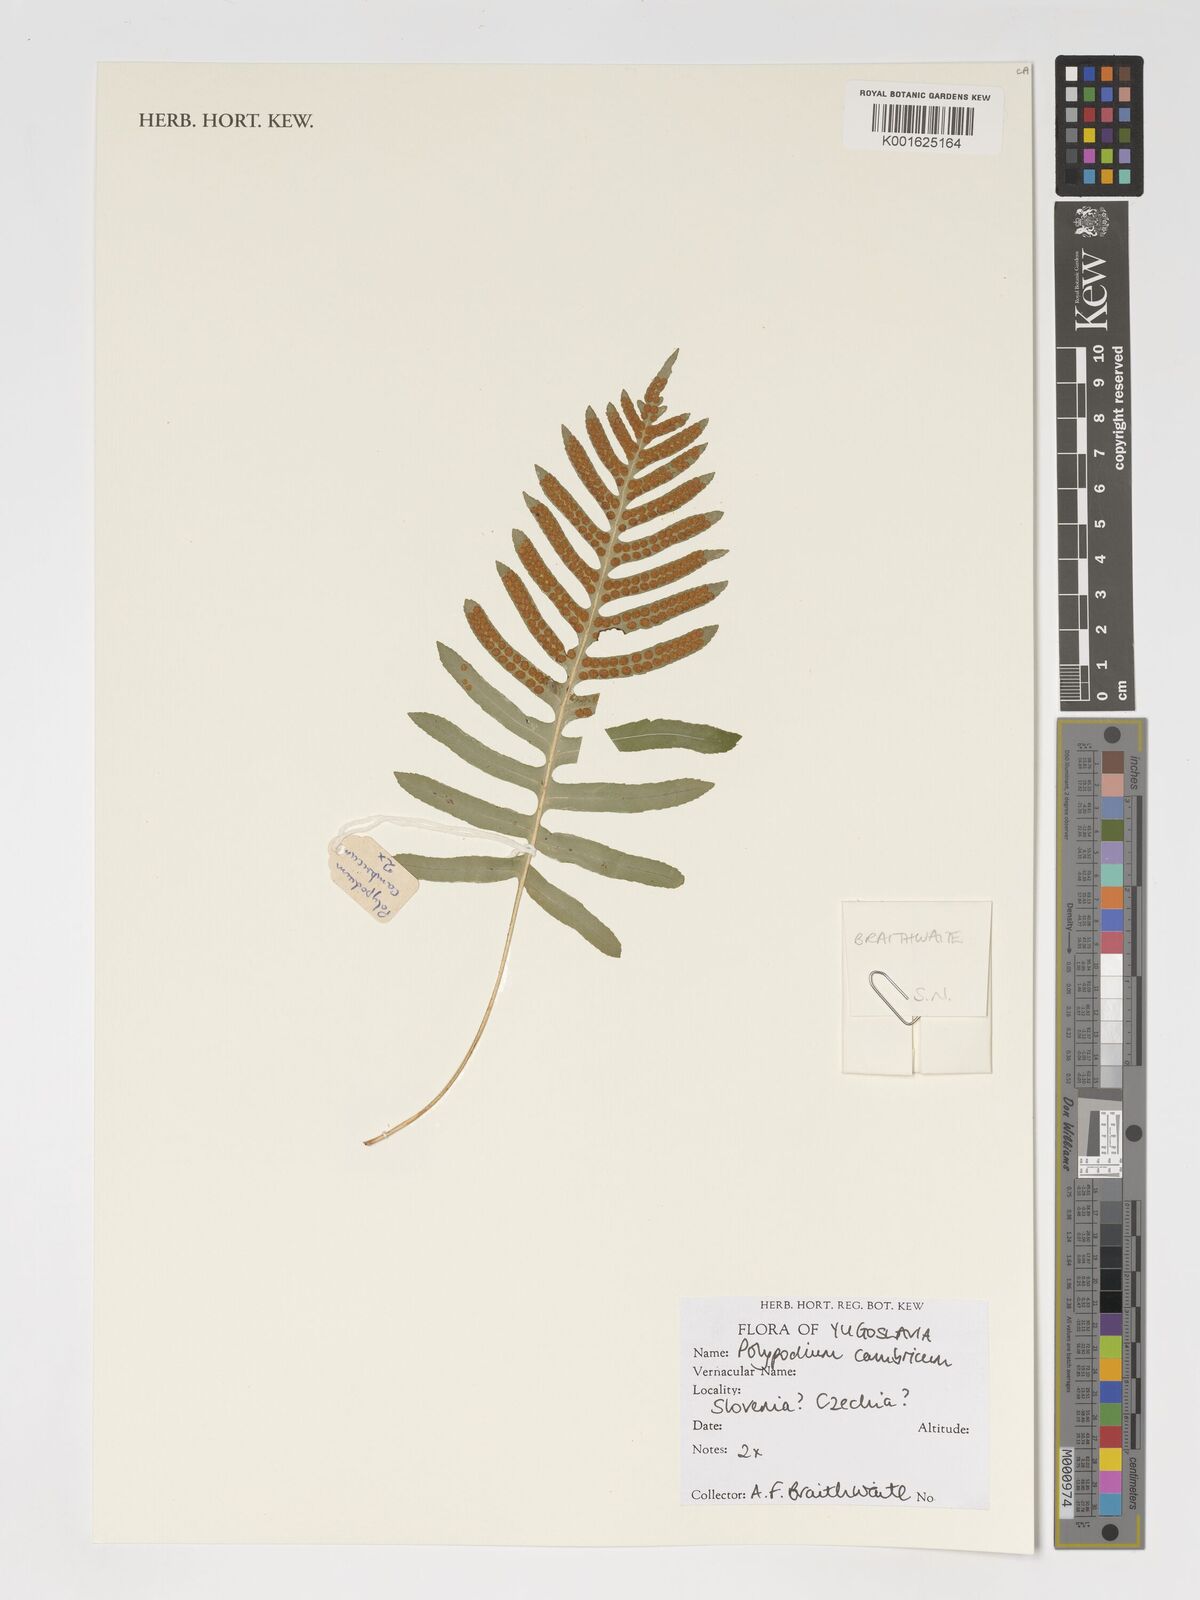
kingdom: Plantae
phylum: Tracheophyta
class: Polypodiopsida
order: Polypodiales
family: Polypodiaceae
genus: Polypodium
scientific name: Polypodium cambricum
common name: Southern polypody
